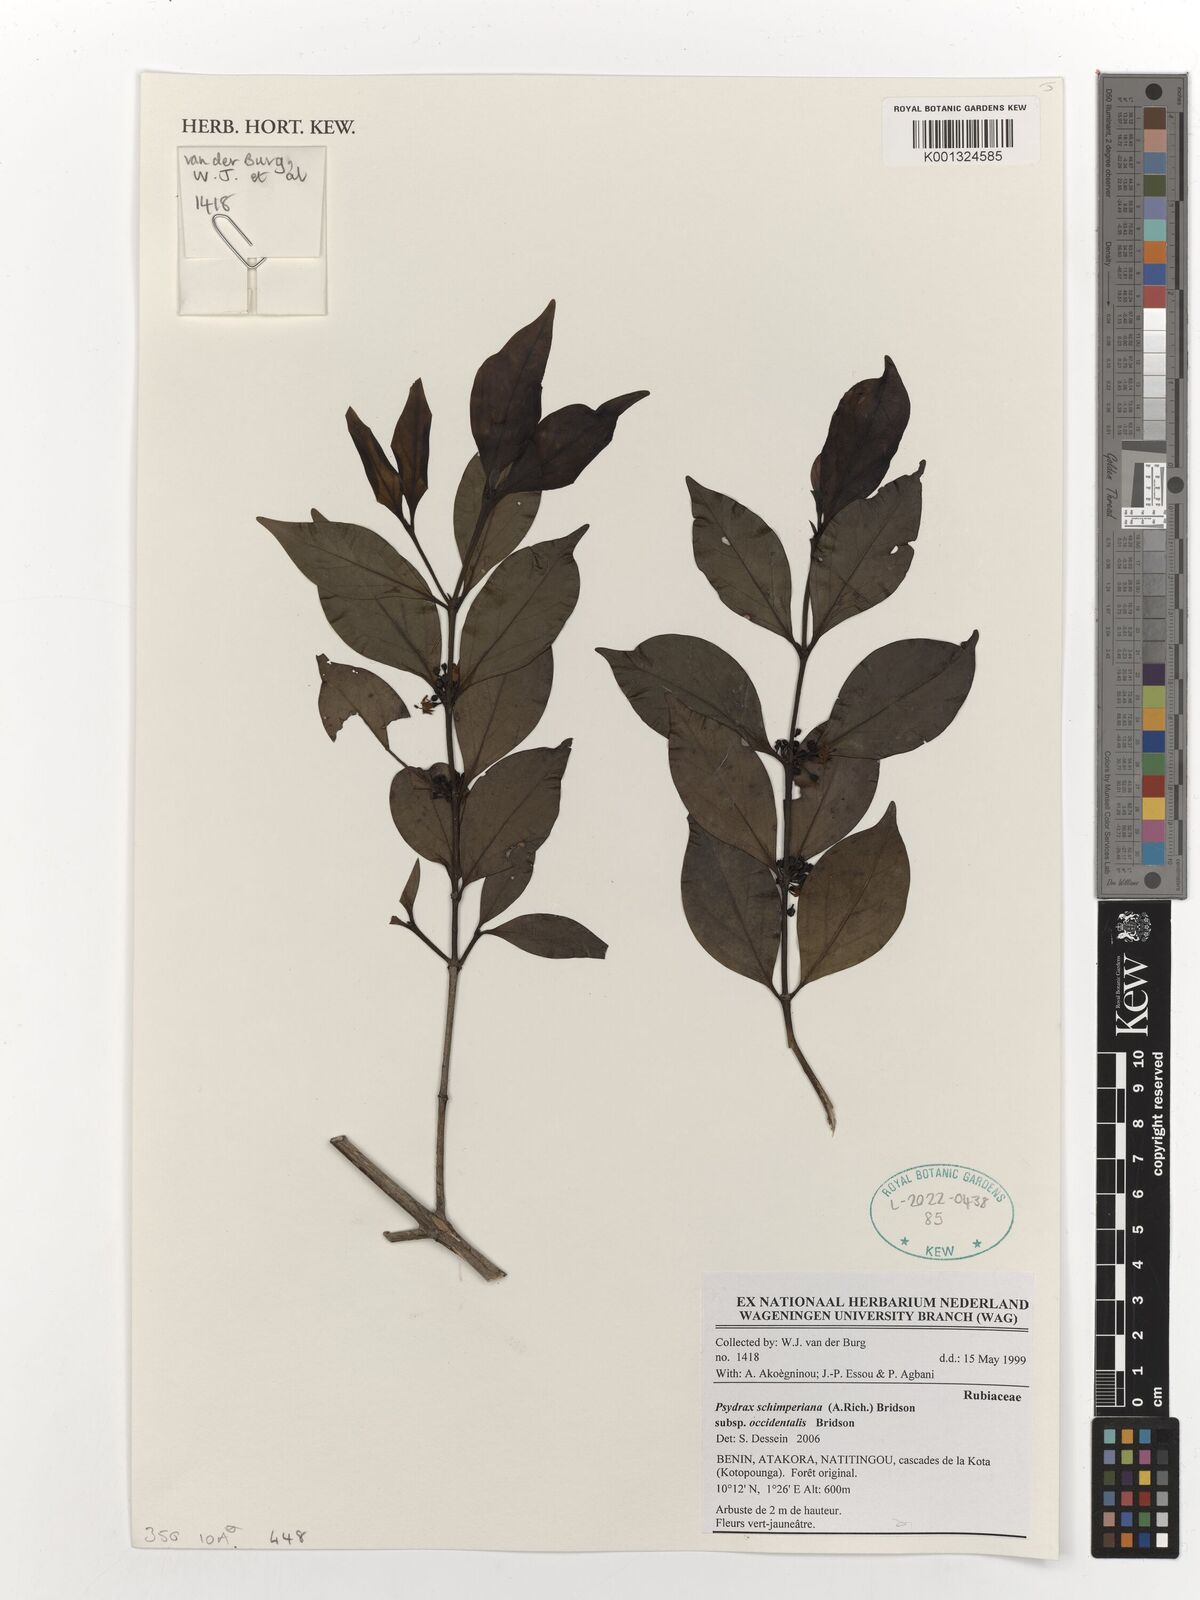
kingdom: Plantae
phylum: Tracheophyta
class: Magnoliopsida
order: Gentianales
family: Rubiaceae
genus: Psydrax
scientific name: Psydrax schimperianus
